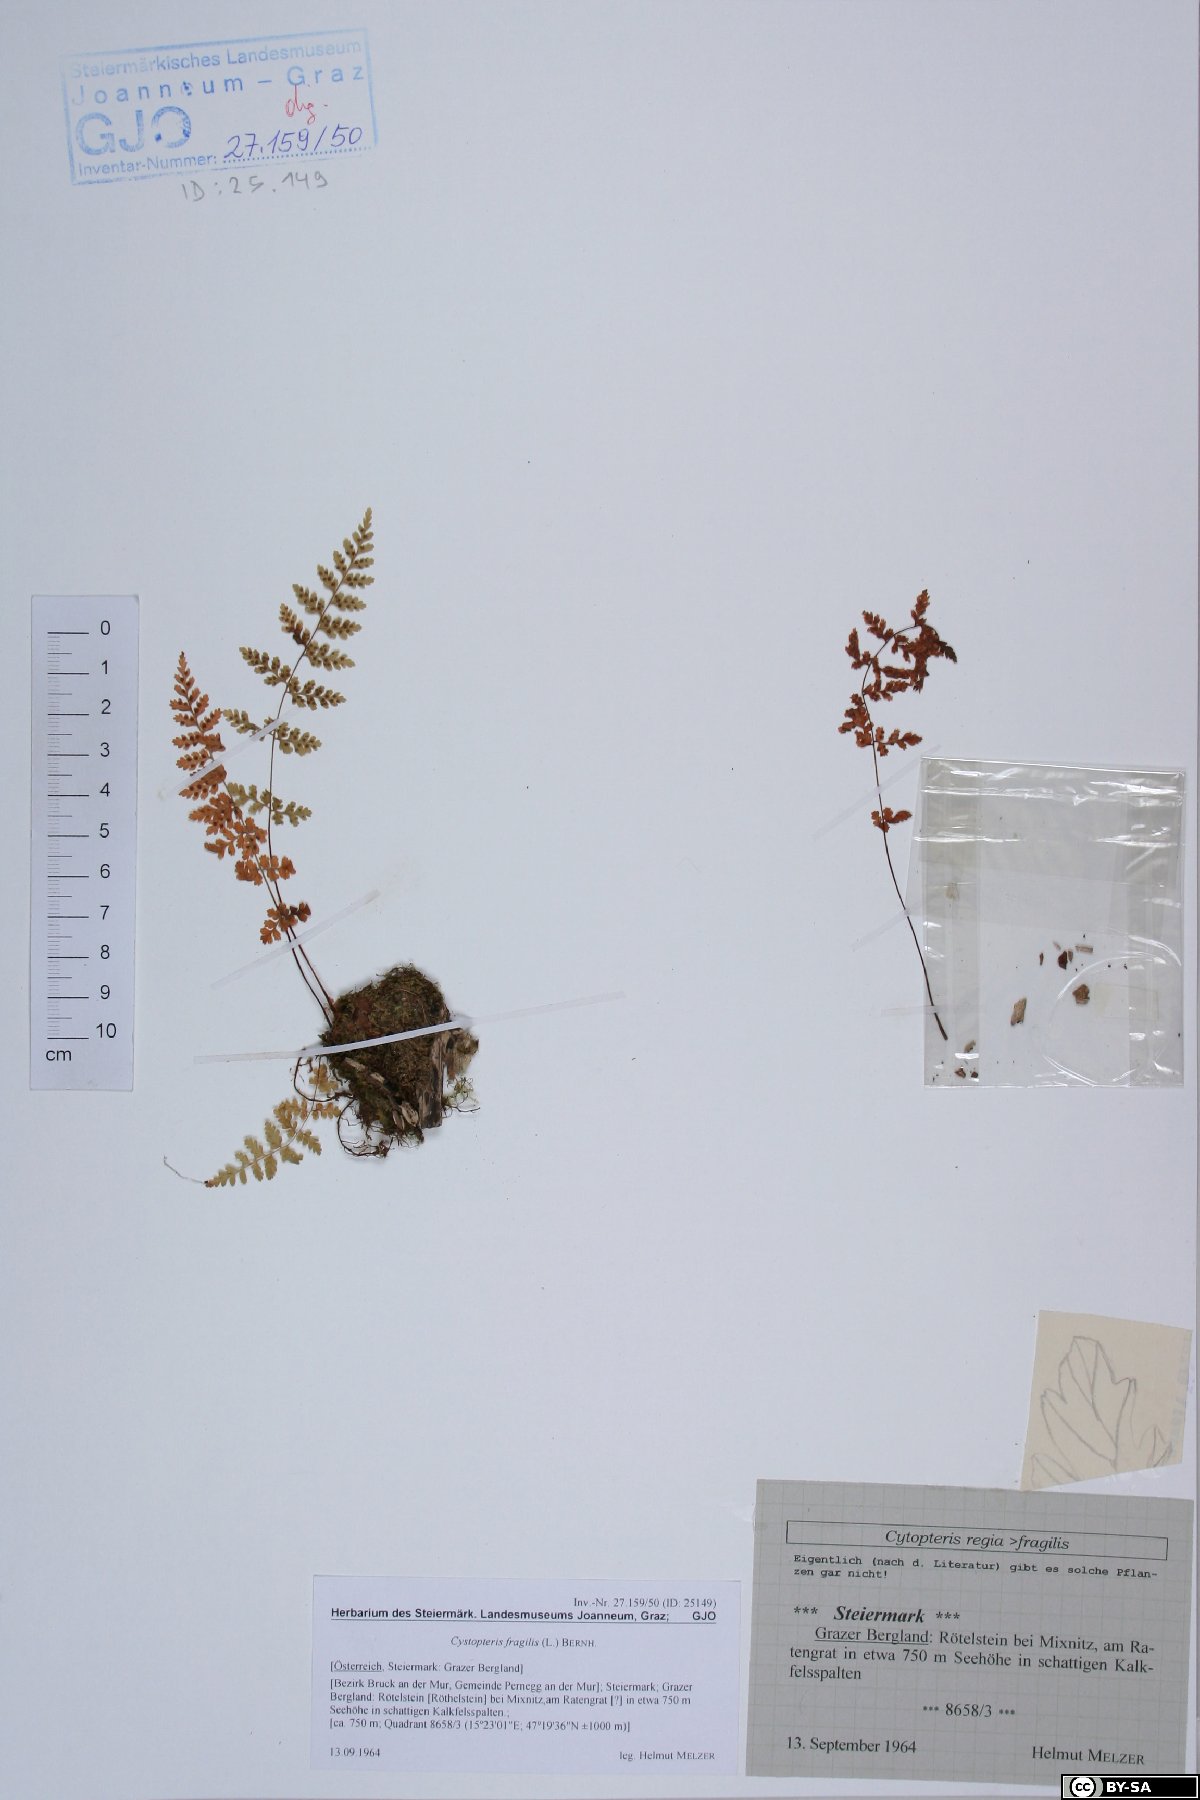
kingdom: Plantae
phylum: Tracheophyta
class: Polypodiopsida
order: Polypodiales
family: Cystopteridaceae
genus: Cystopteris
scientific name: Cystopteris fragilis
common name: Brittle bladder fern
